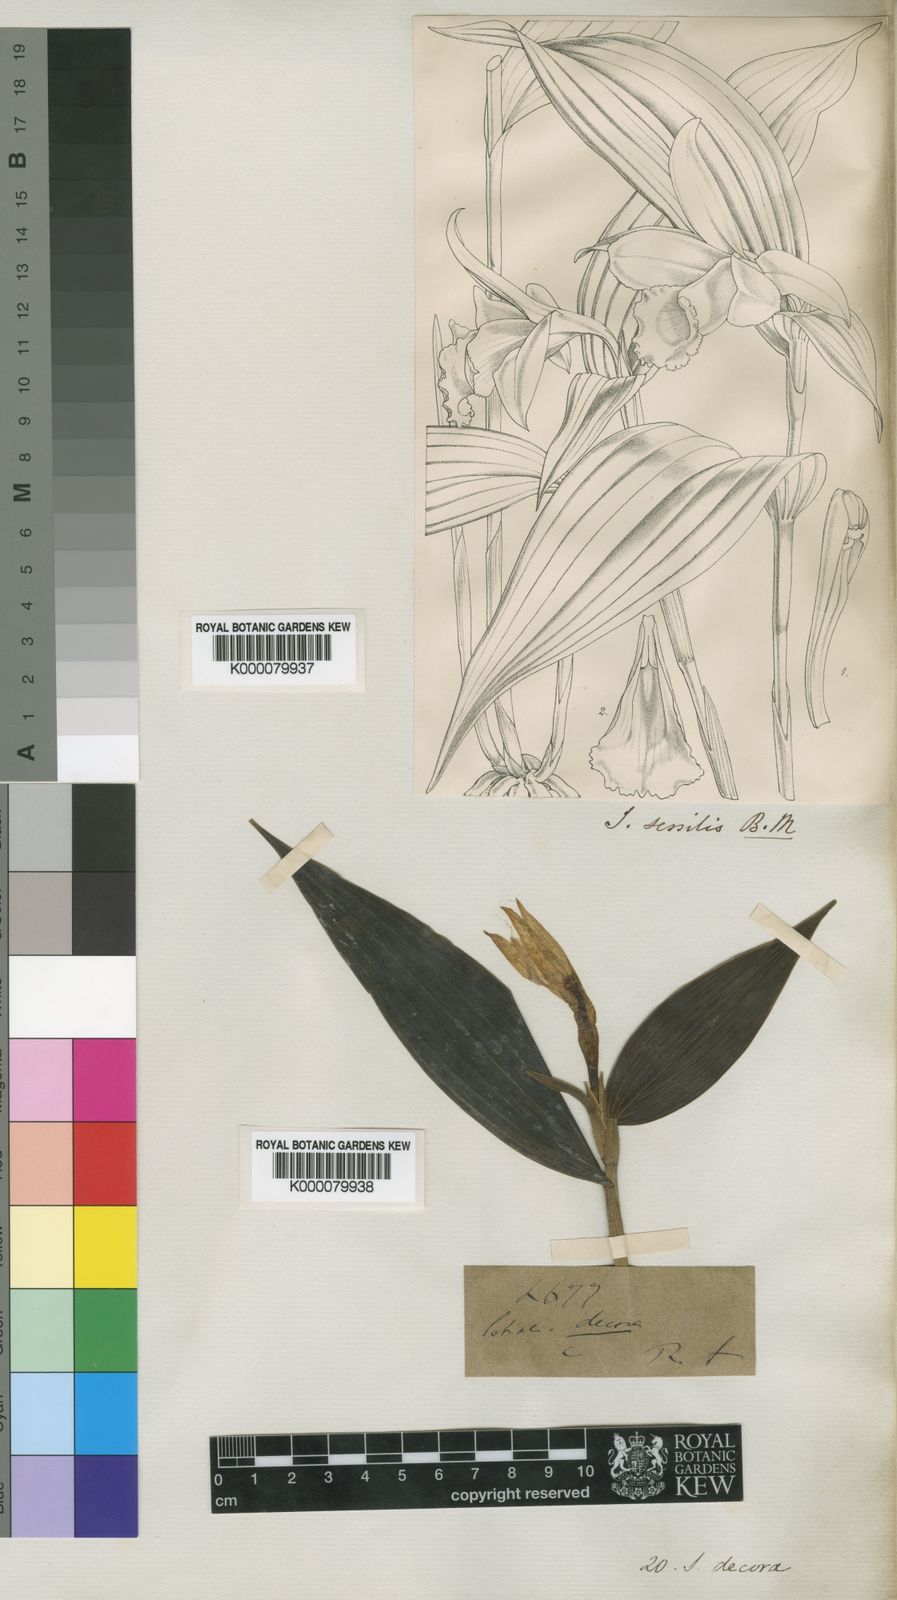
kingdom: Plantae
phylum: Tracheophyta
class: Liliopsida
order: Asparagales
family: Orchidaceae
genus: Sobralia
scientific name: Sobralia
